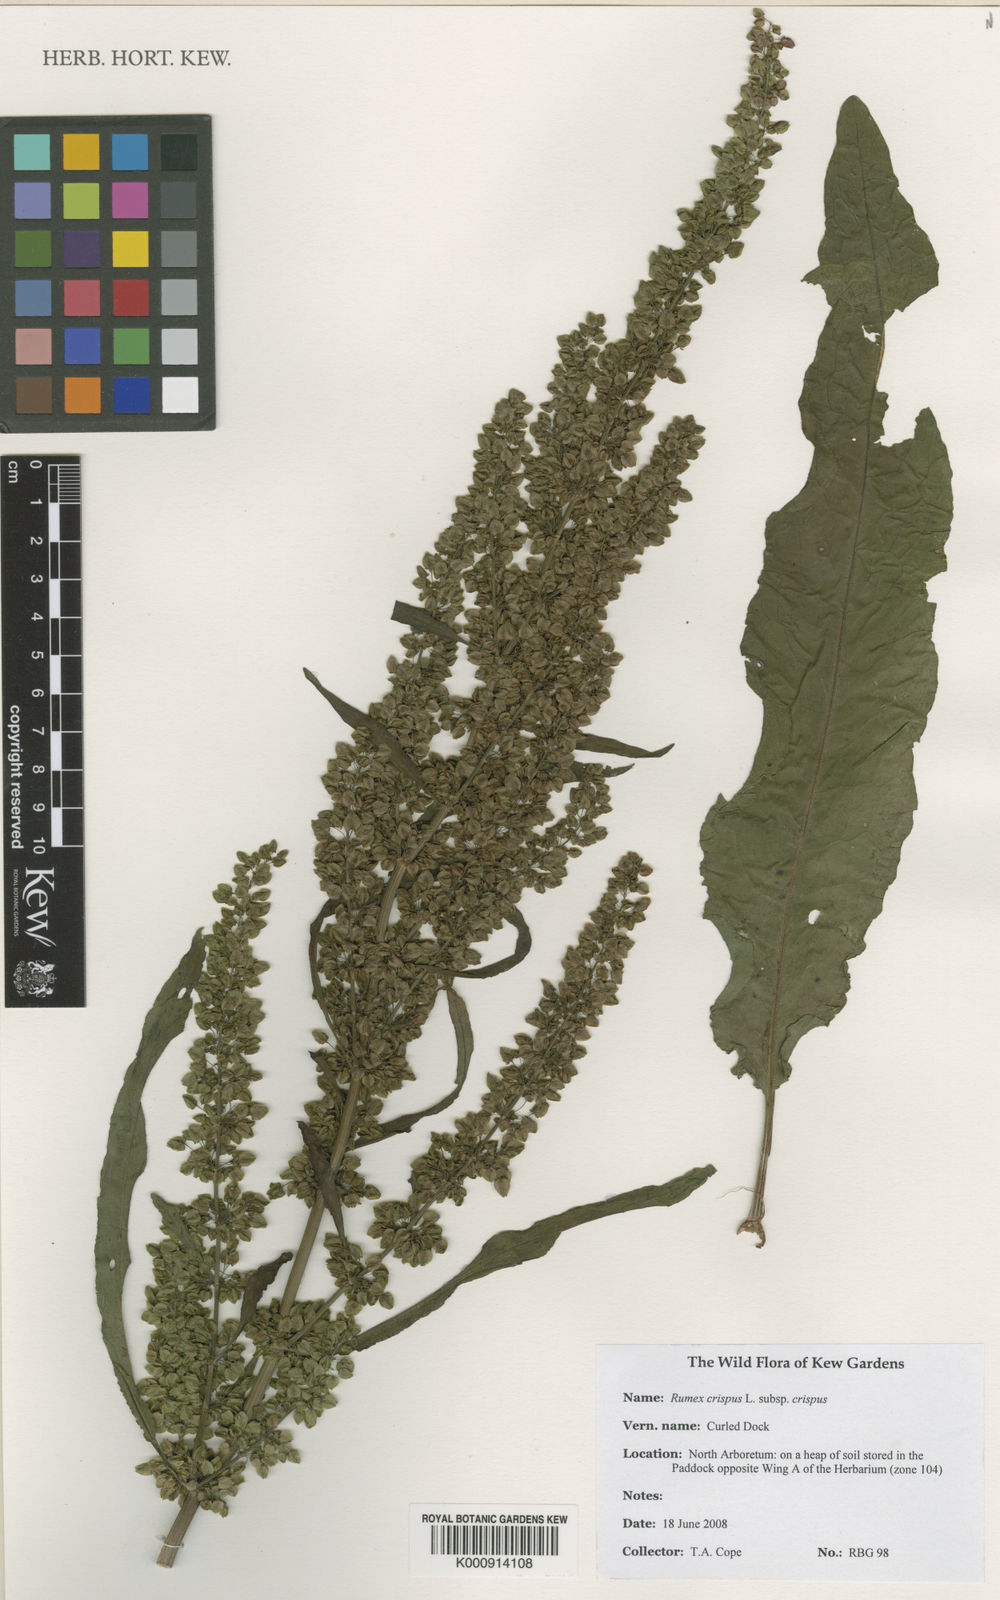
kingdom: Plantae
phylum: Tracheophyta
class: Magnoliopsida
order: Caryophyllales
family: Polygonaceae
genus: Rumex
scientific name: Rumex crispus
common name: Curled dock
